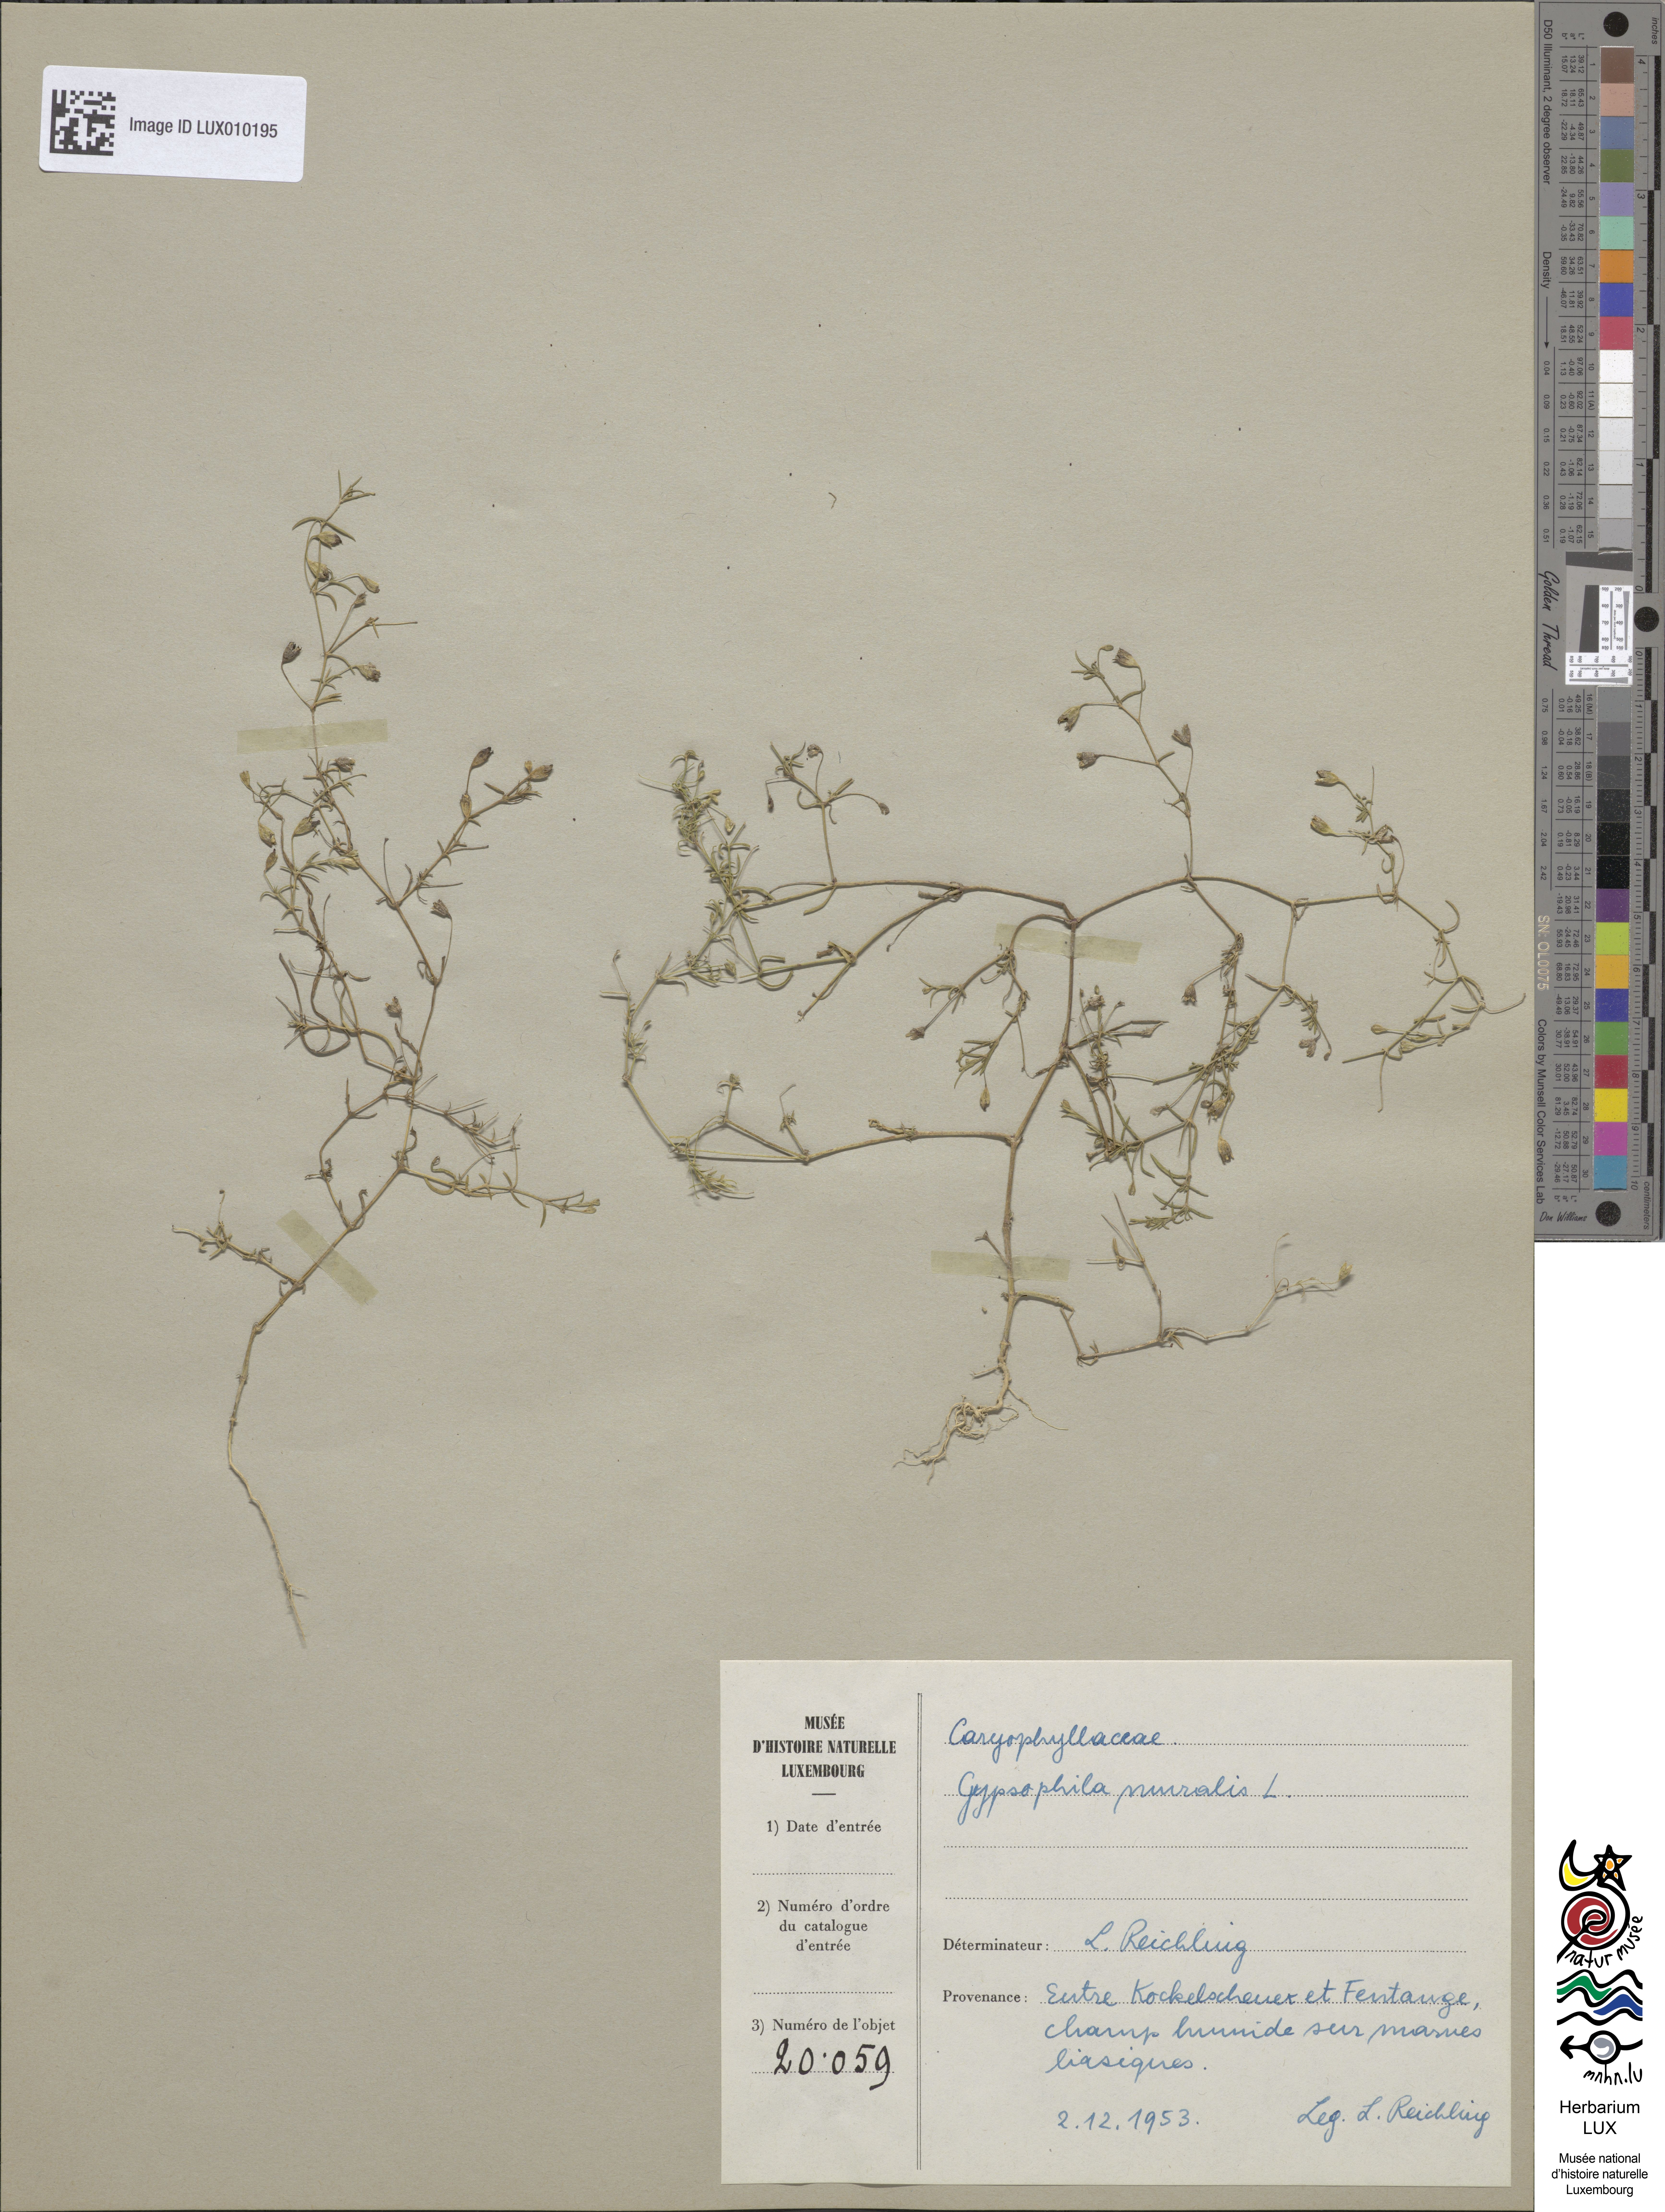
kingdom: Plantae
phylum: Tracheophyta
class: Magnoliopsida
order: Caryophyllales
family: Caryophyllaceae
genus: Psammophiliella
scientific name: Psammophiliella muralis
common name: Cushion baby's-breath
